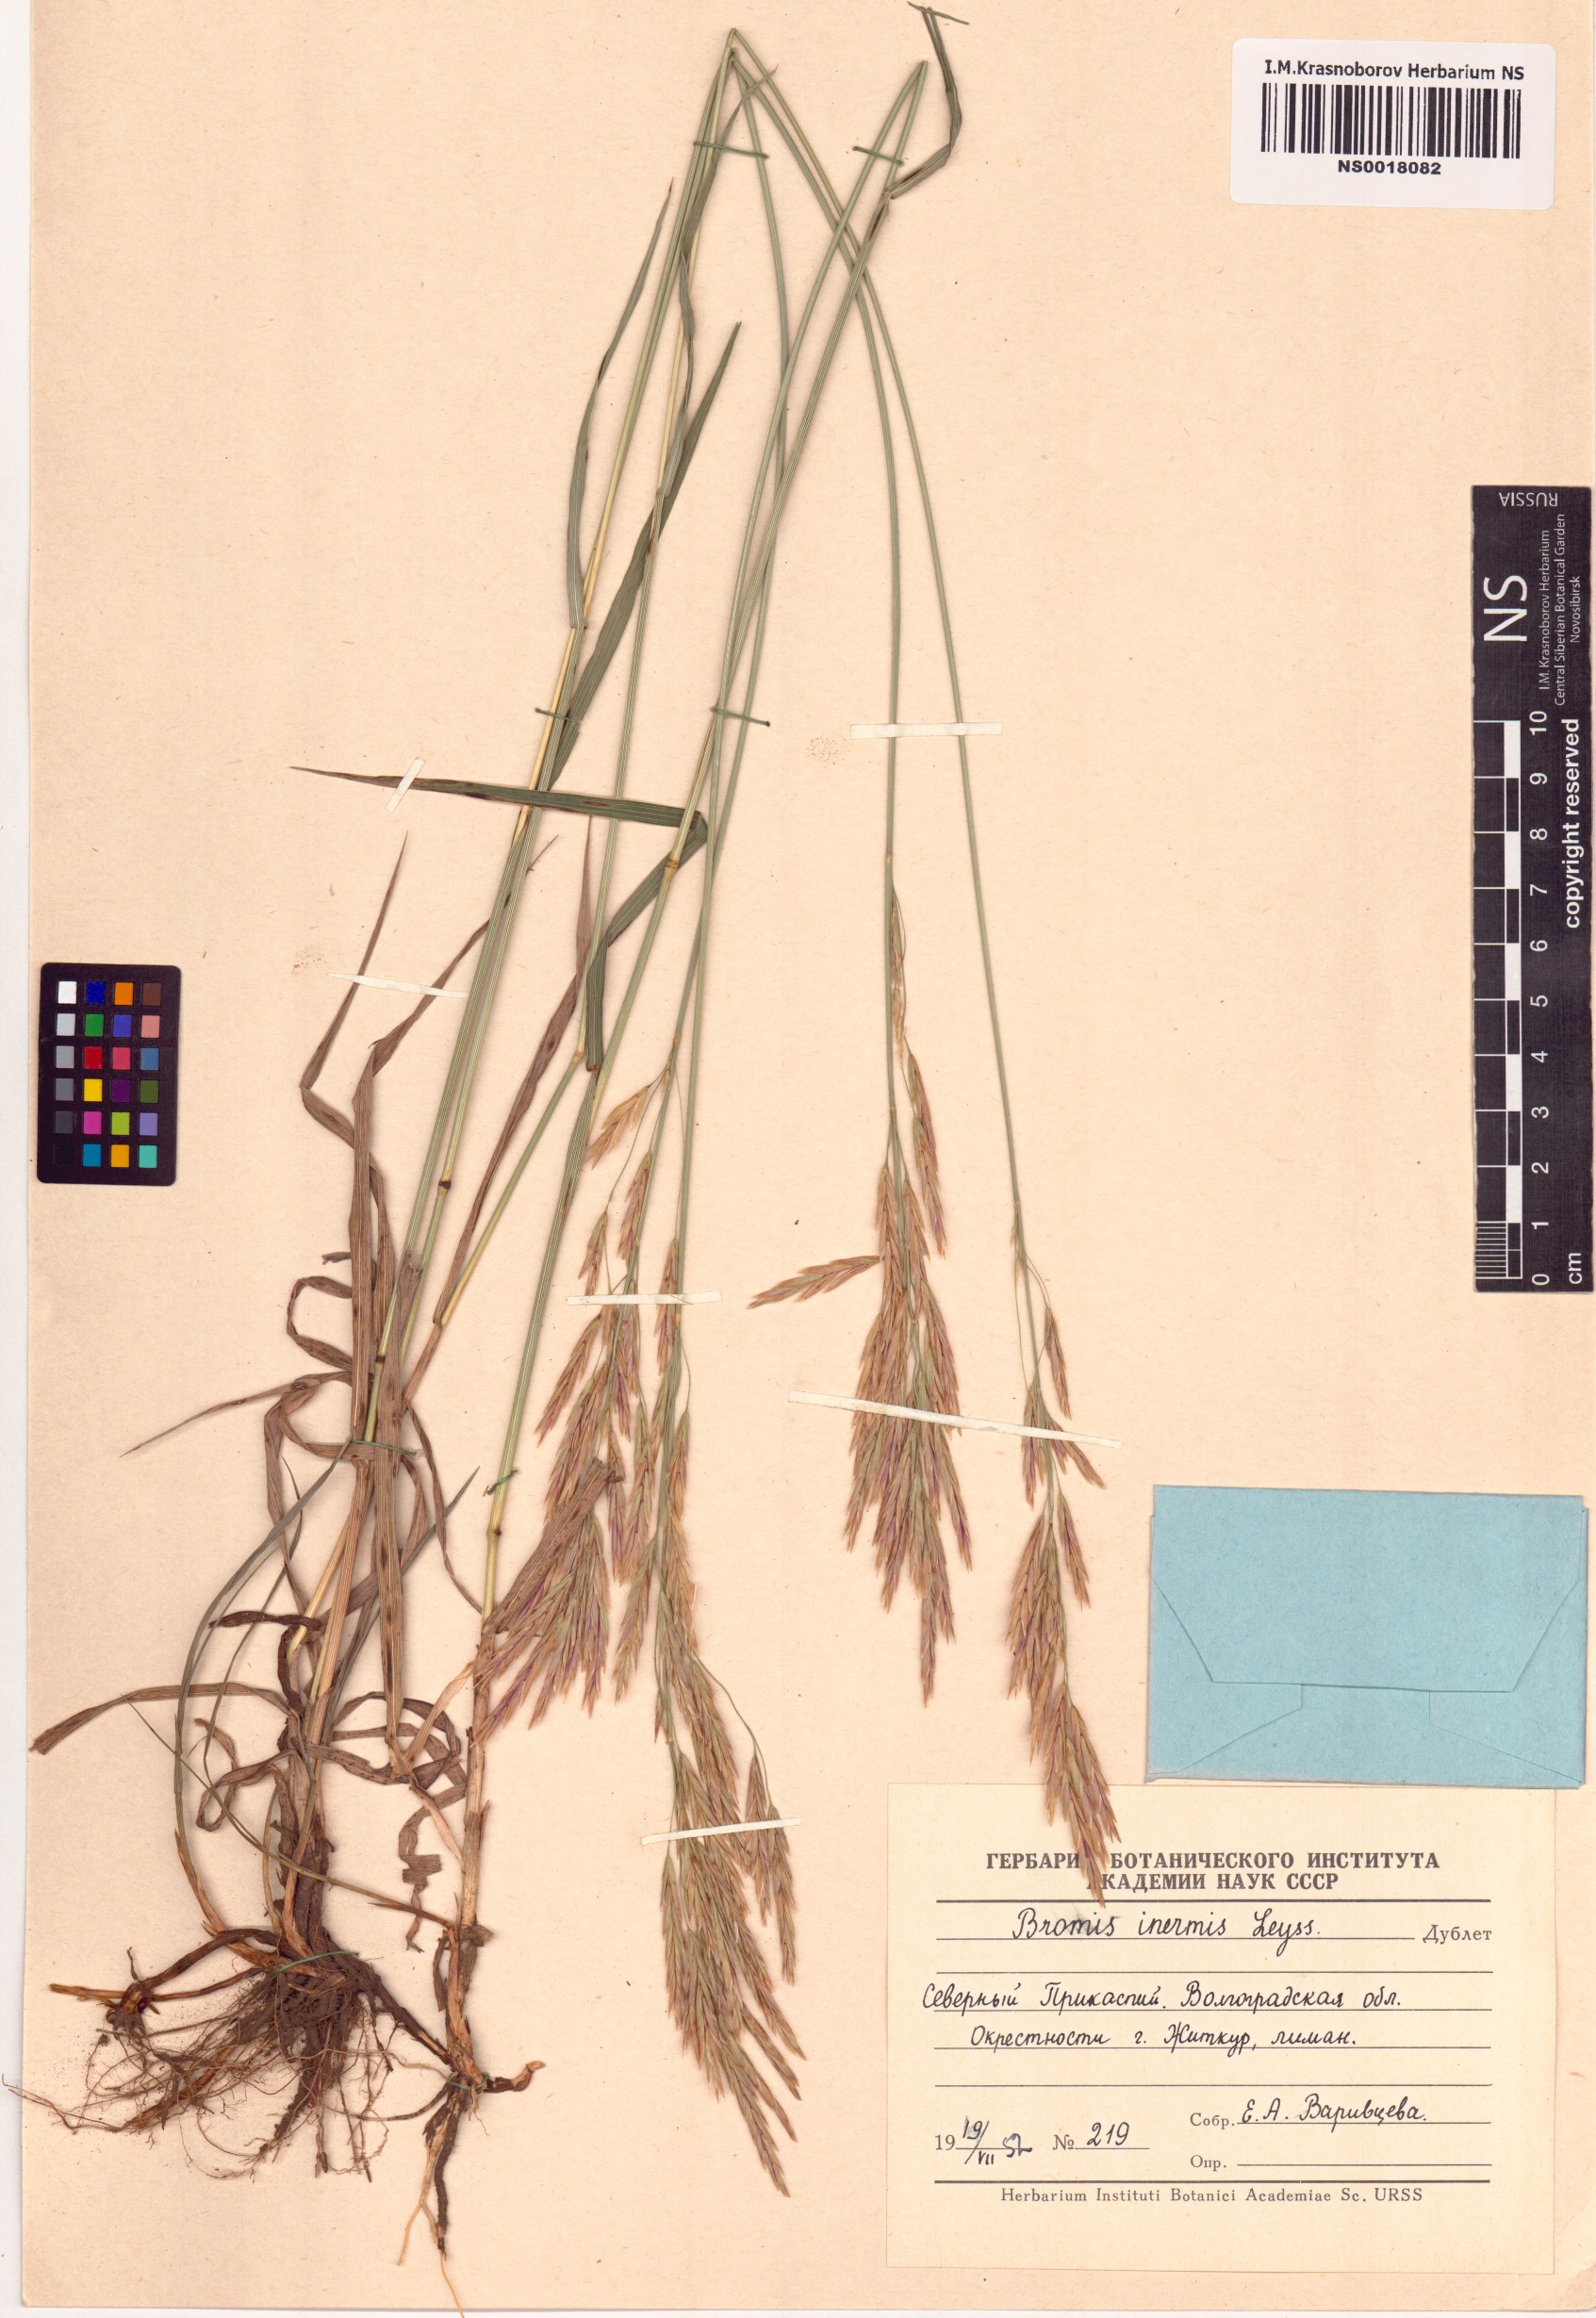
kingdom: Plantae
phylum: Tracheophyta
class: Liliopsida
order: Poales
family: Poaceae
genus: Bromus
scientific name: Bromus inermis
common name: Smooth brome
